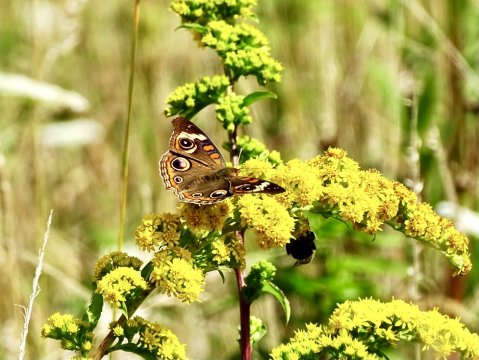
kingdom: Animalia
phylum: Arthropoda
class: Insecta
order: Lepidoptera
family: Nymphalidae
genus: Junonia
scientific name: Junonia coenia
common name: Common Buckeye
